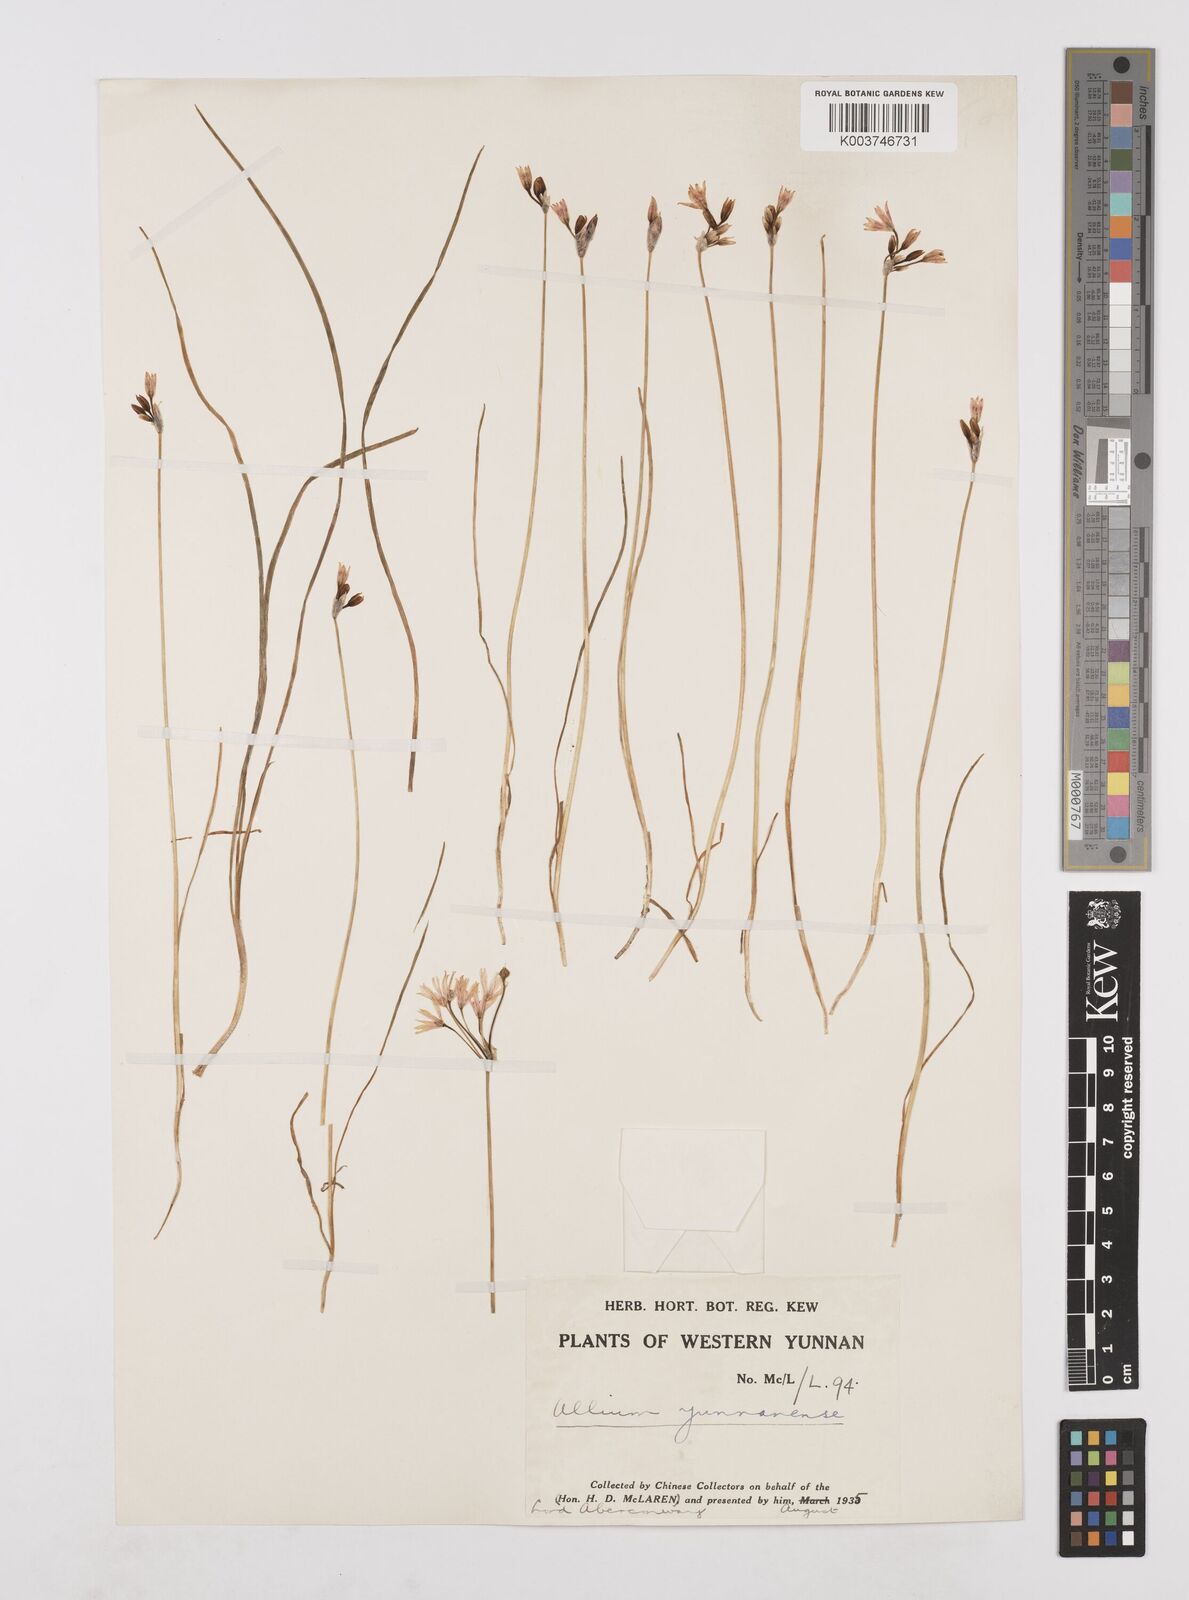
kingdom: Plantae
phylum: Tracheophyta
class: Liliopsida
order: Asparagales
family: Amaryllidaceae
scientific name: Amaryllidaceae
